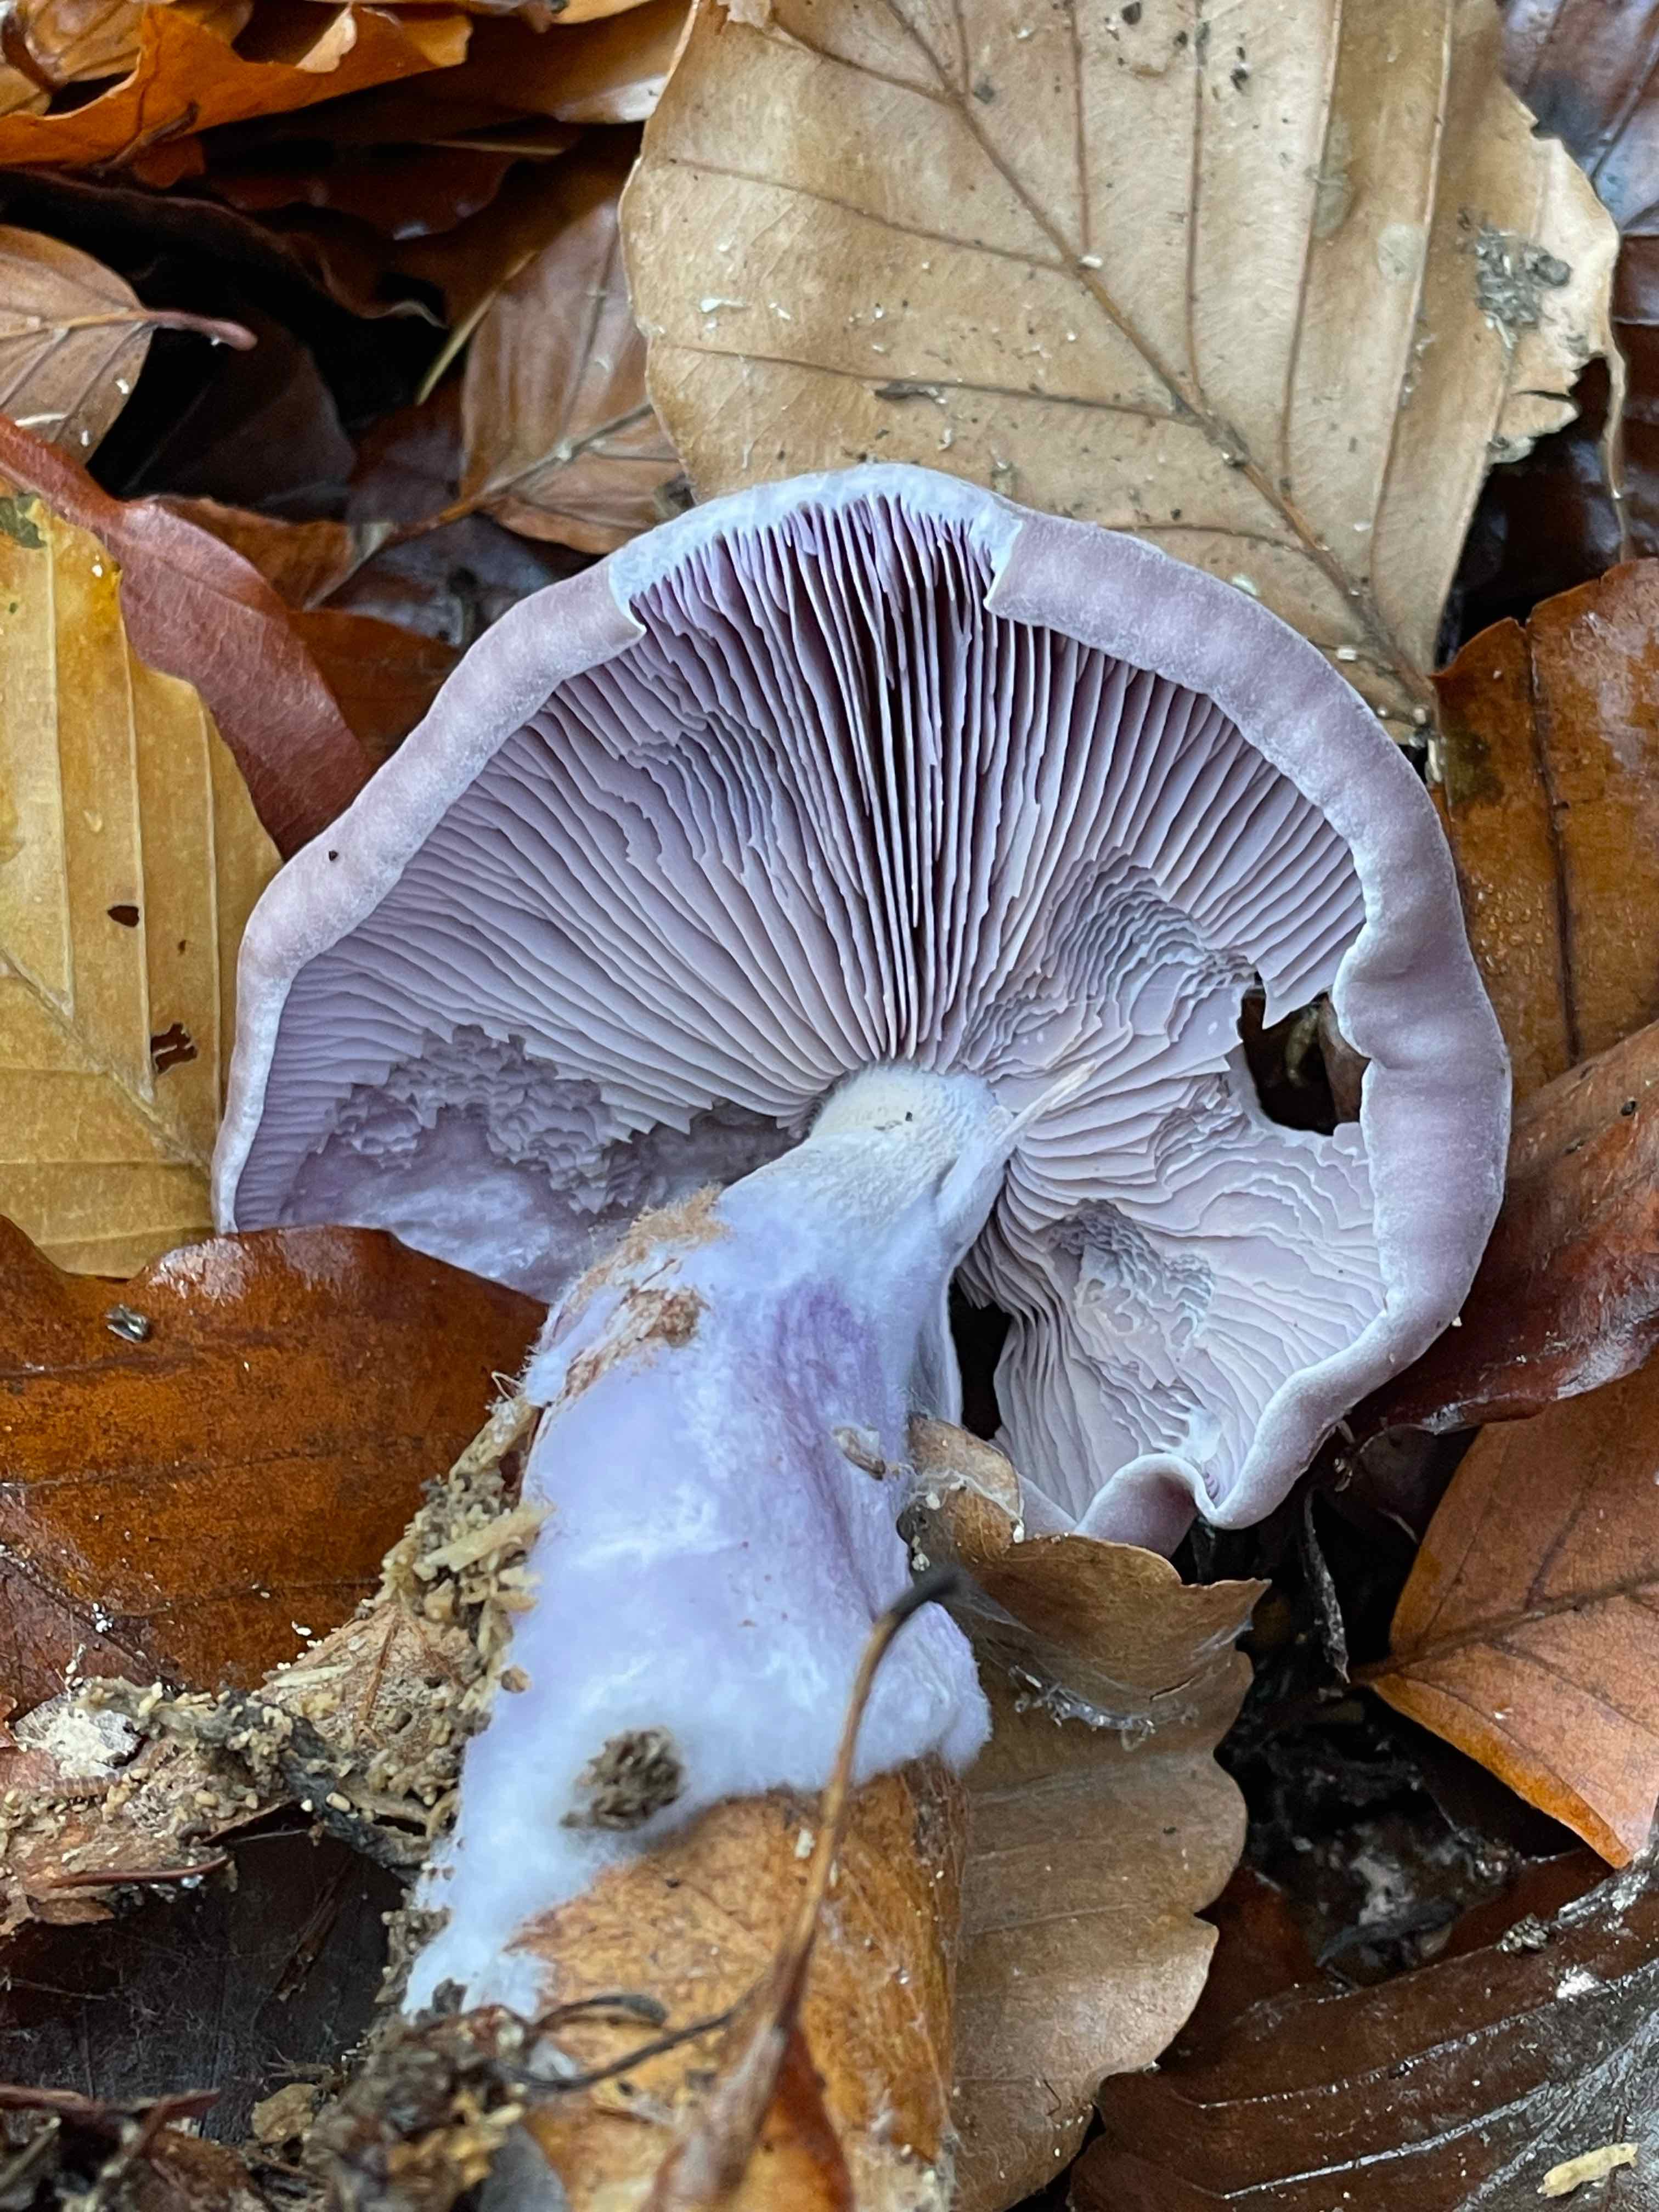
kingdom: Fungi
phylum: Basidiomycota
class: Agaricomycetes
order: Agaricales
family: Tricholomataceae
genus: Lepista
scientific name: Lepista nuda
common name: violet hekseringshat
